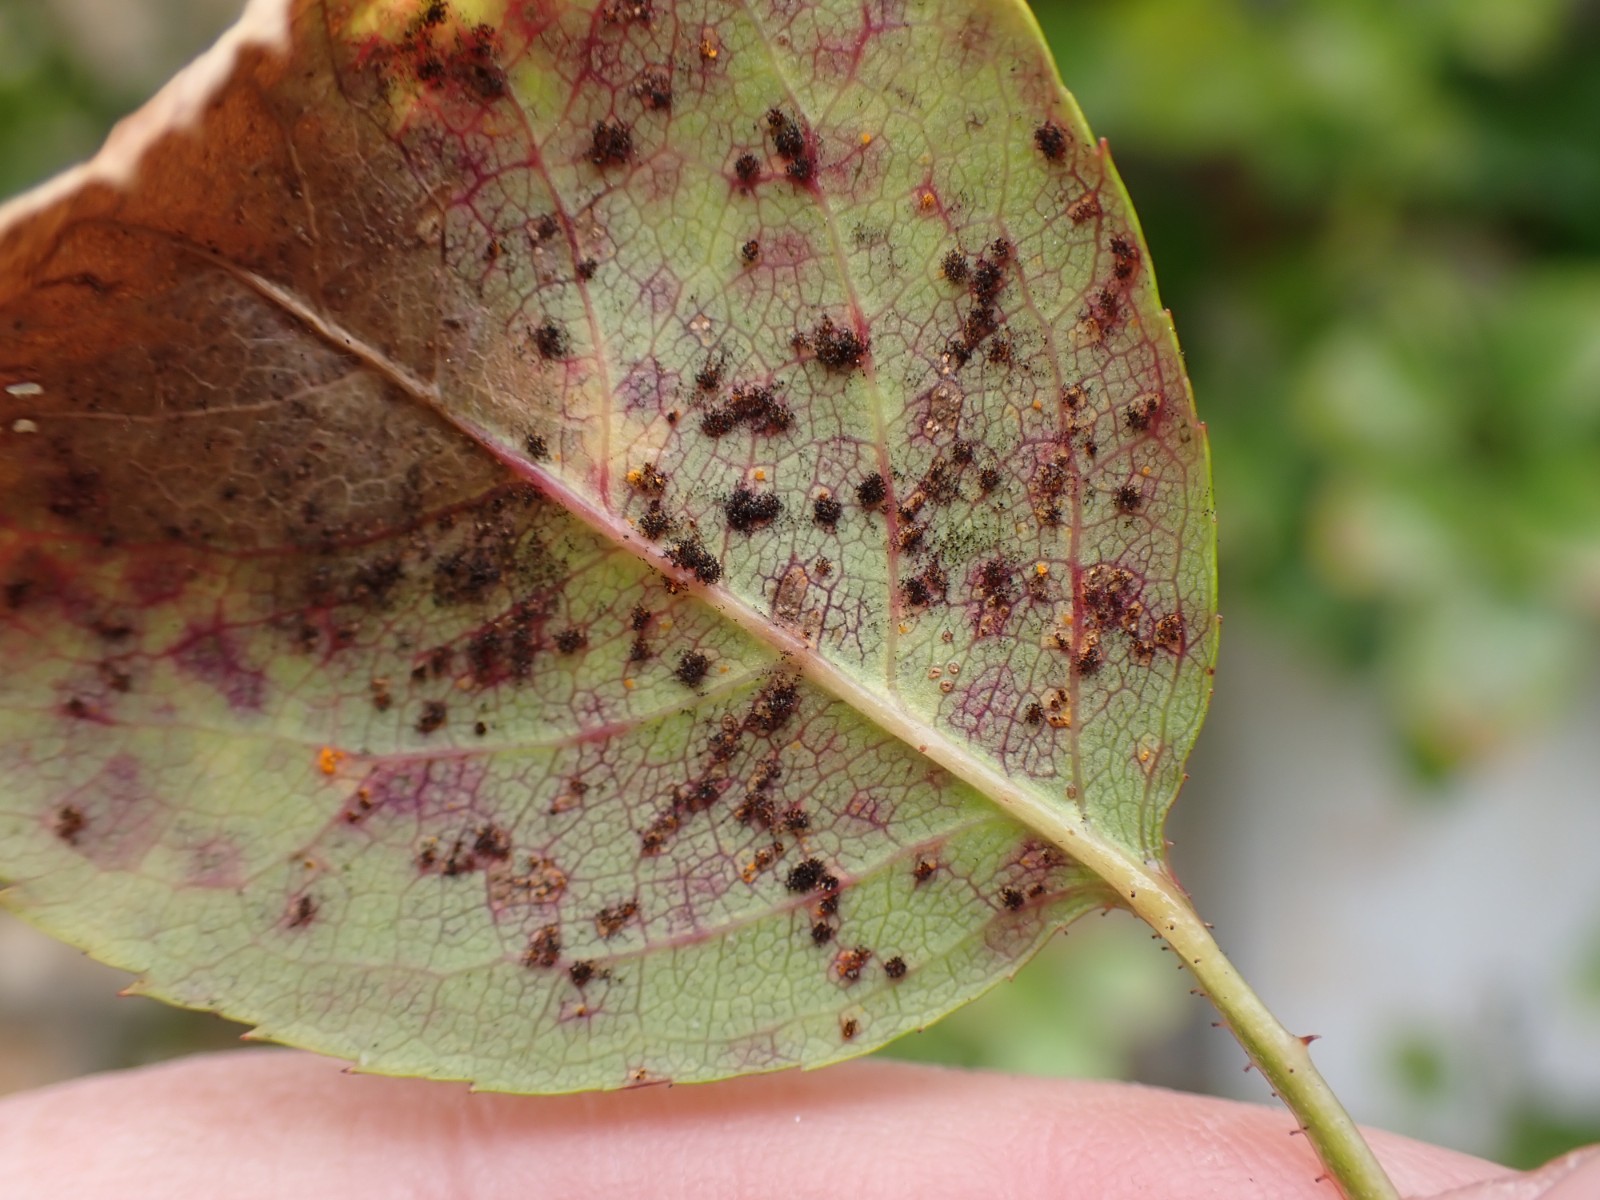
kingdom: Fungi
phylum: Basidiomycota
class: Pucciniomycetes
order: Pucciniales
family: Phragmidiaceae
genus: Phragmidium
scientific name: Phragmidium
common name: flercellerust
